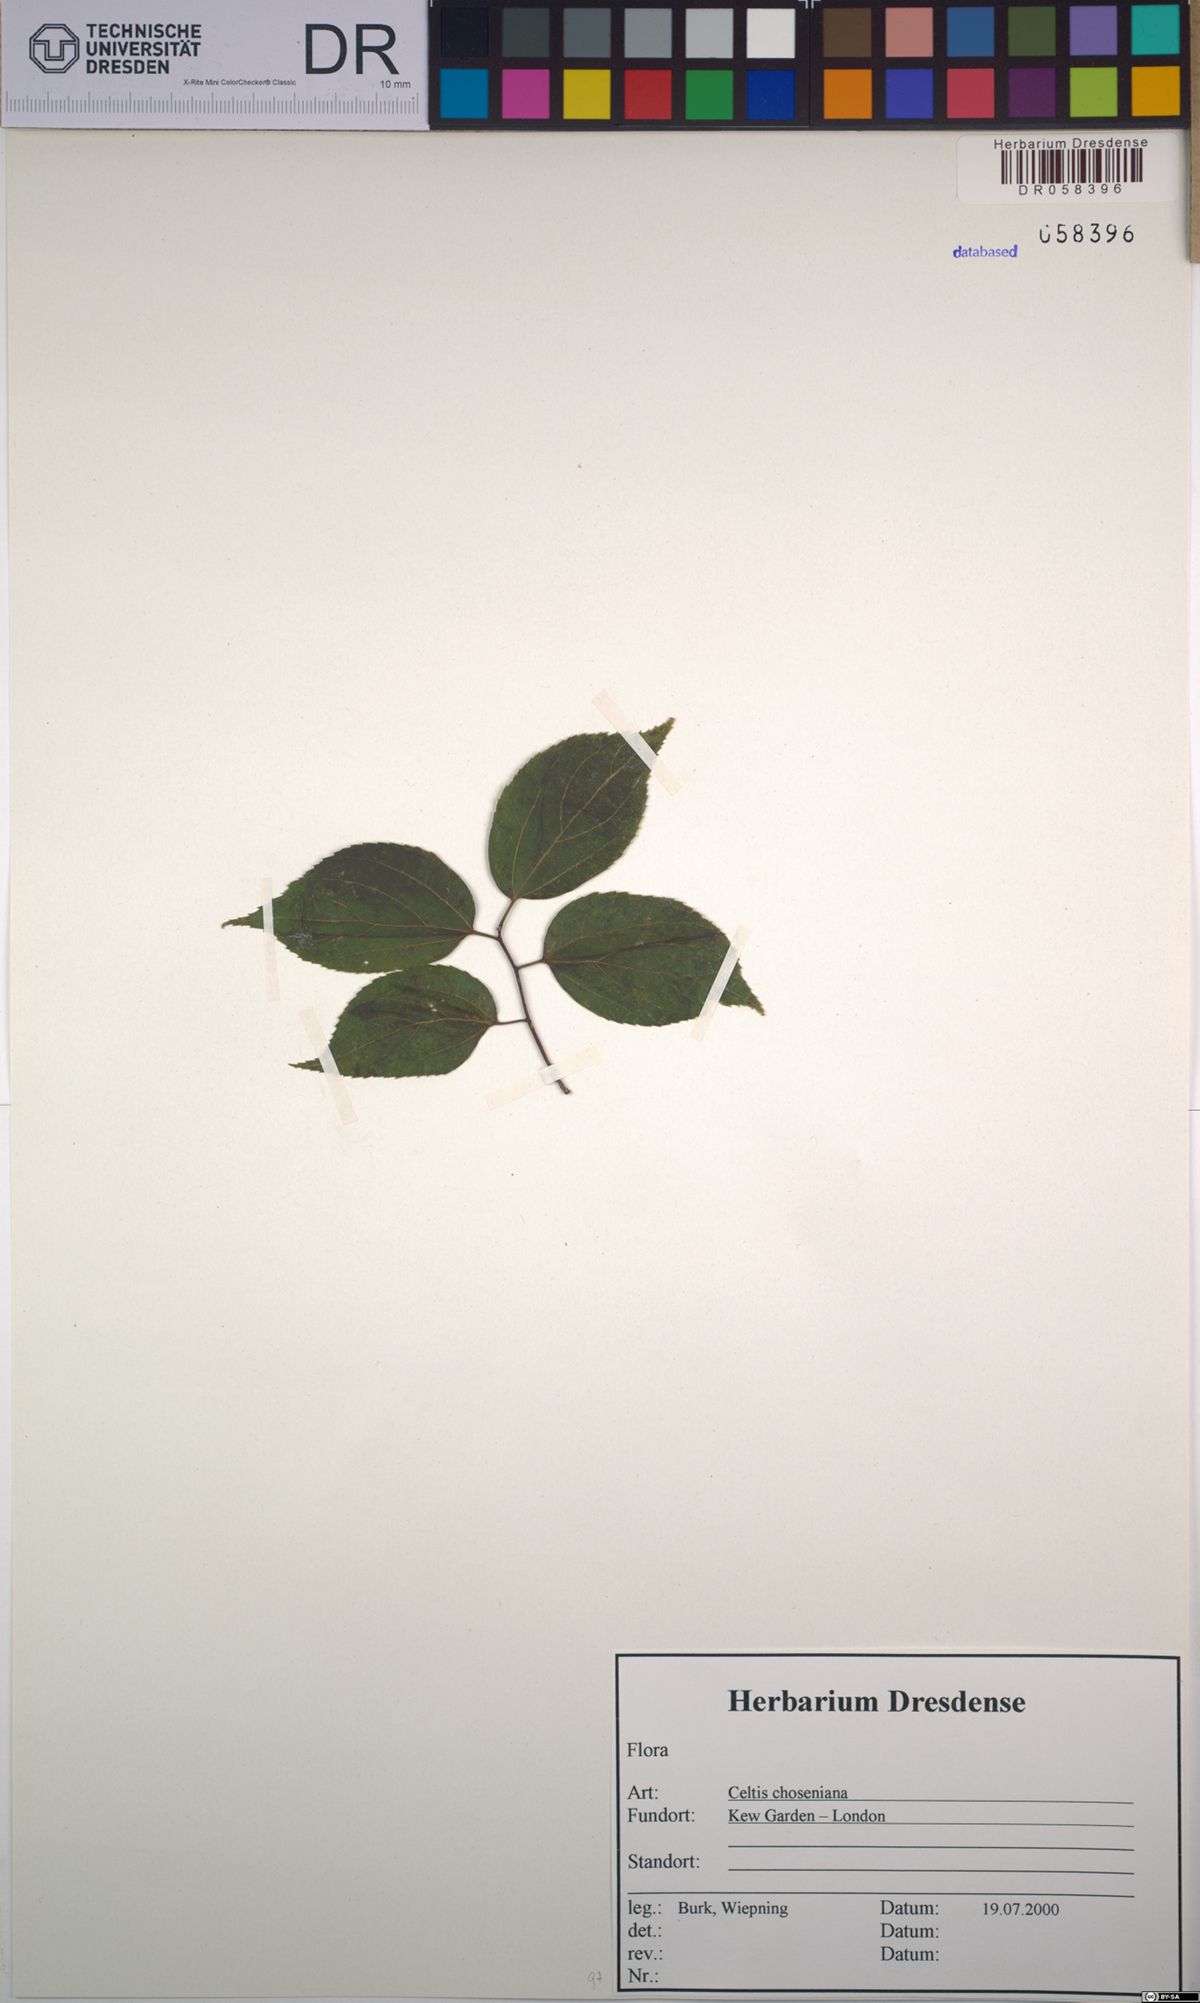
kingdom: Plantae
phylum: Tracheophyta
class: Magnoliopsida
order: Rosales
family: Cannabaceae
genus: Celtis
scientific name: Celtis jessoensis
